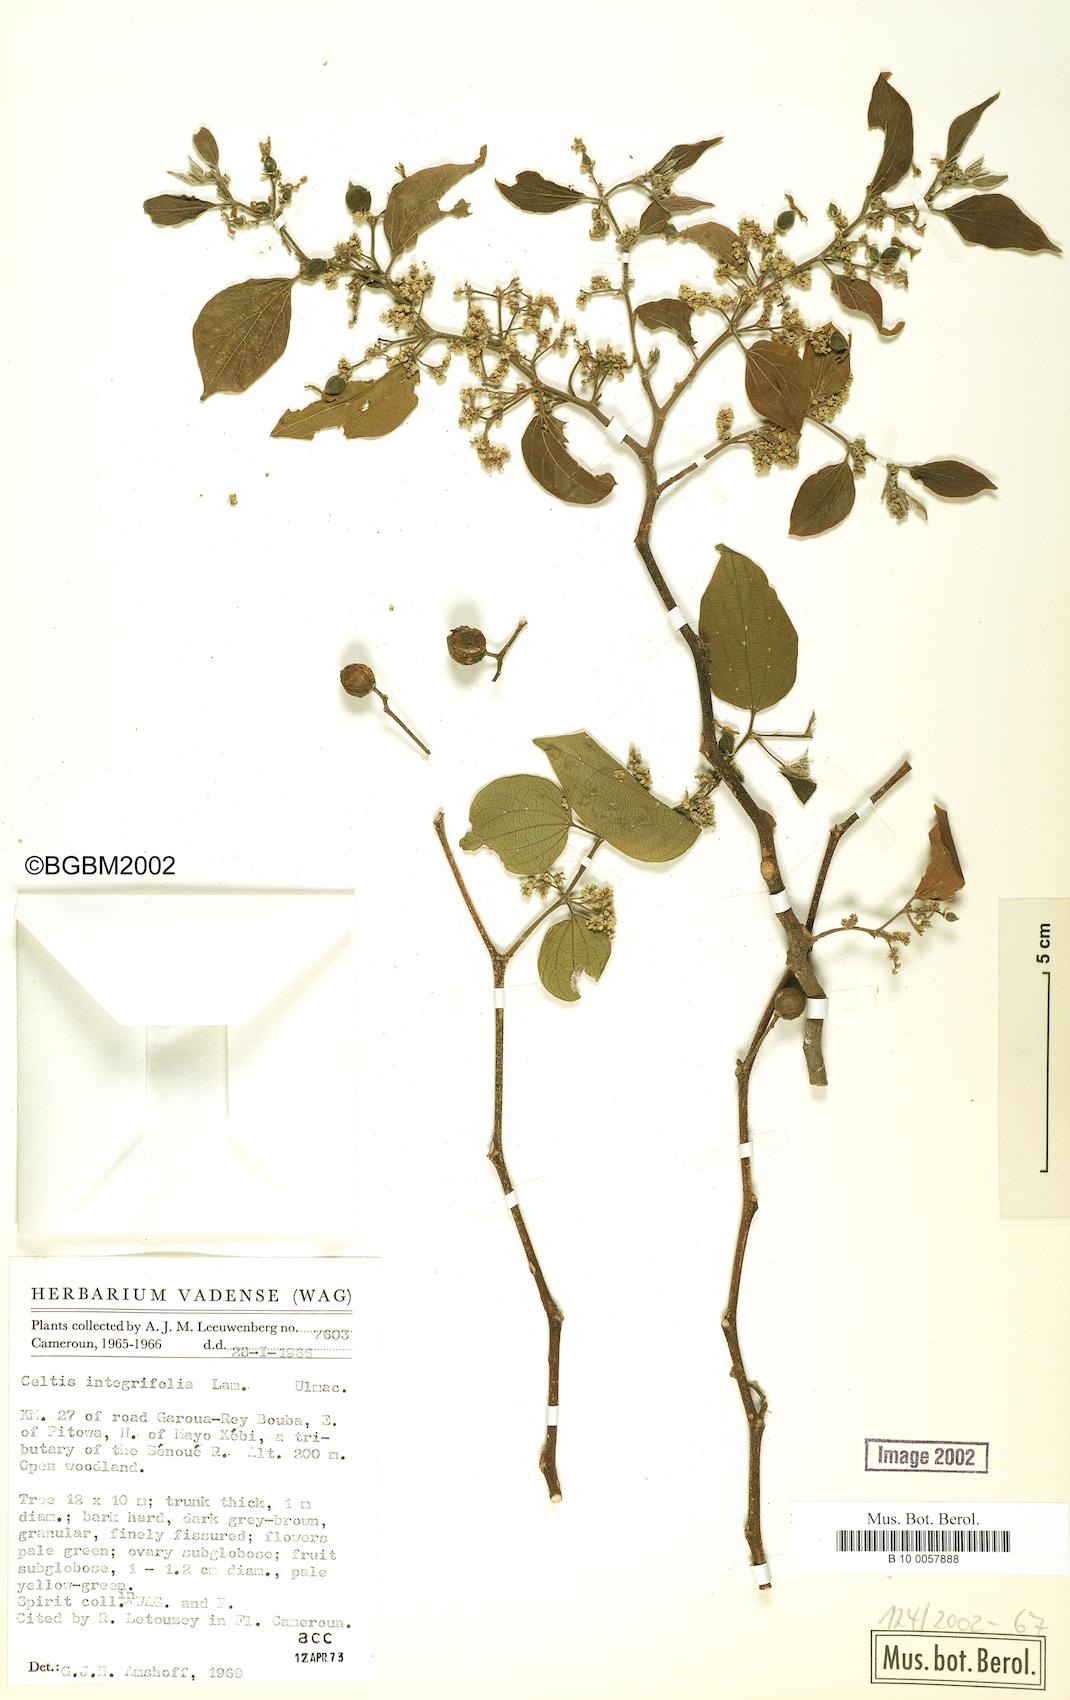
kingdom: Plantae
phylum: Tracheophyta
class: Magnoliopsida
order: Rosales
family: Cannabaceae
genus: Celtis
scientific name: Celtis toka
